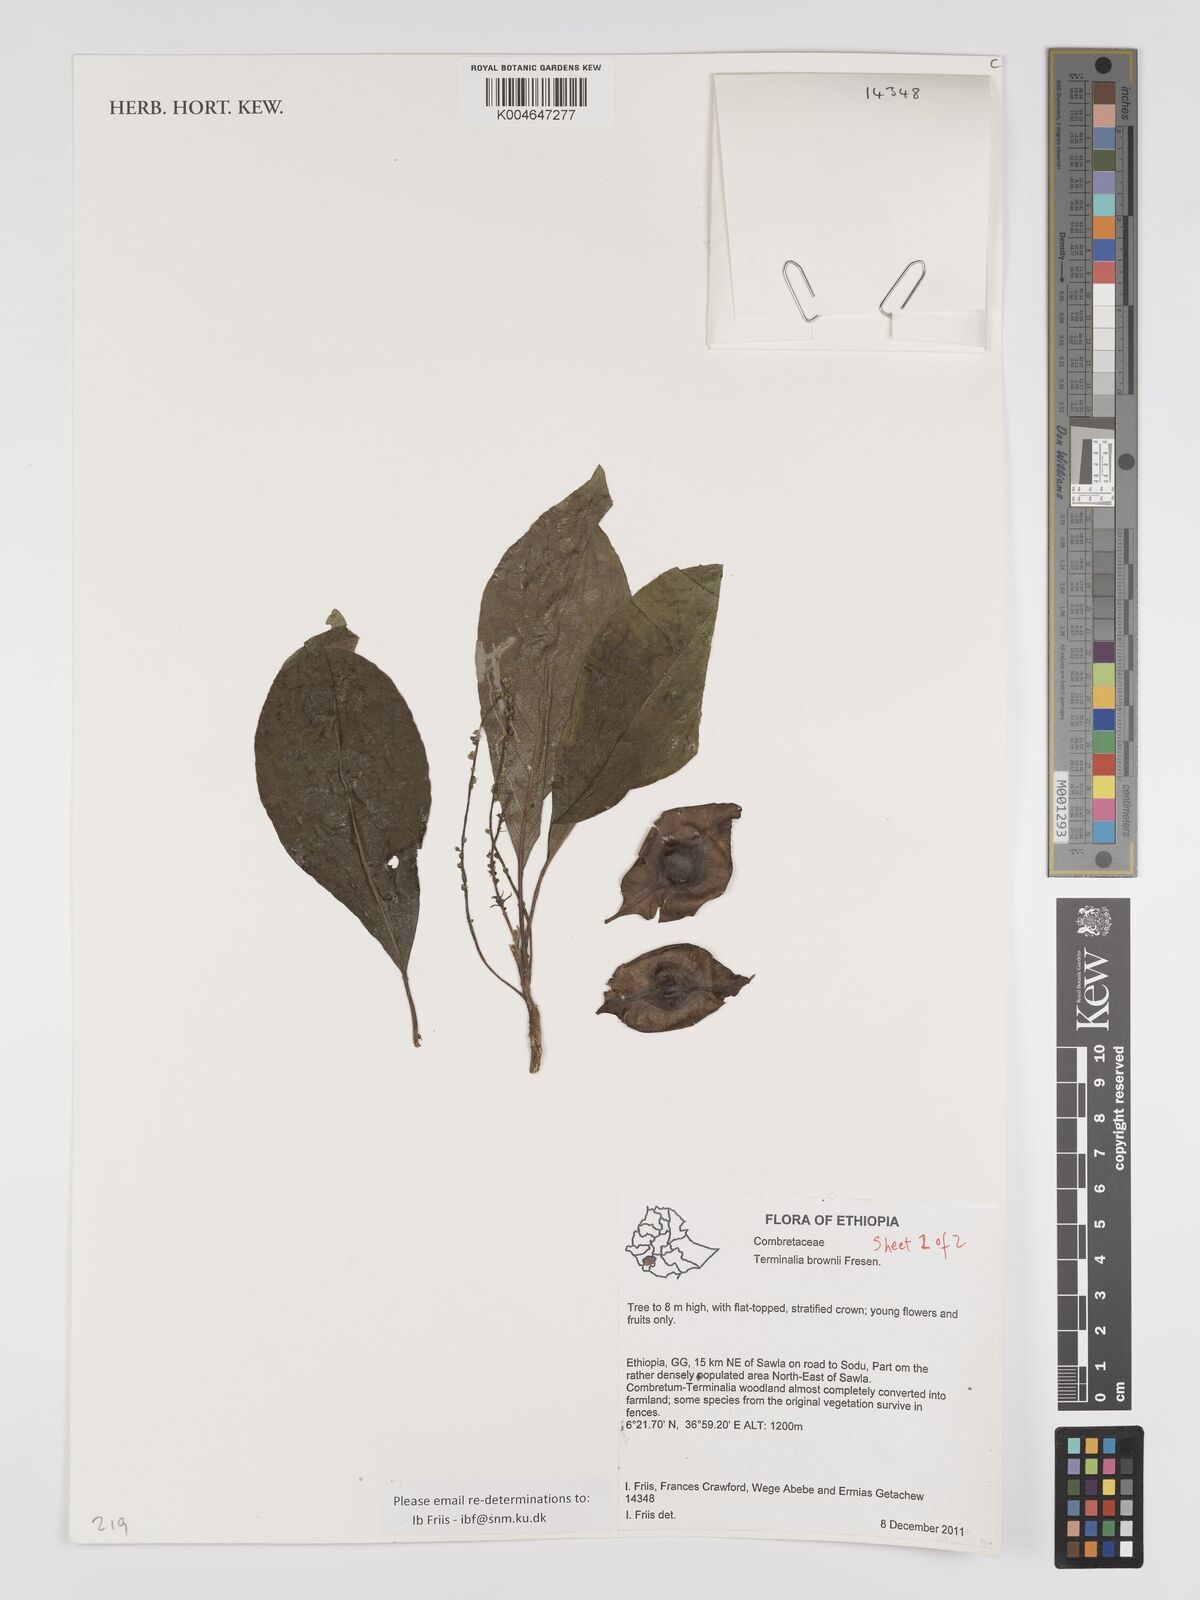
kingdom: Plantae
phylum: Tracheophyta
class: Magnoliopsida
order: Myrtales
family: Combretaceae
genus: Terminalia
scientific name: Terminalia brownii
